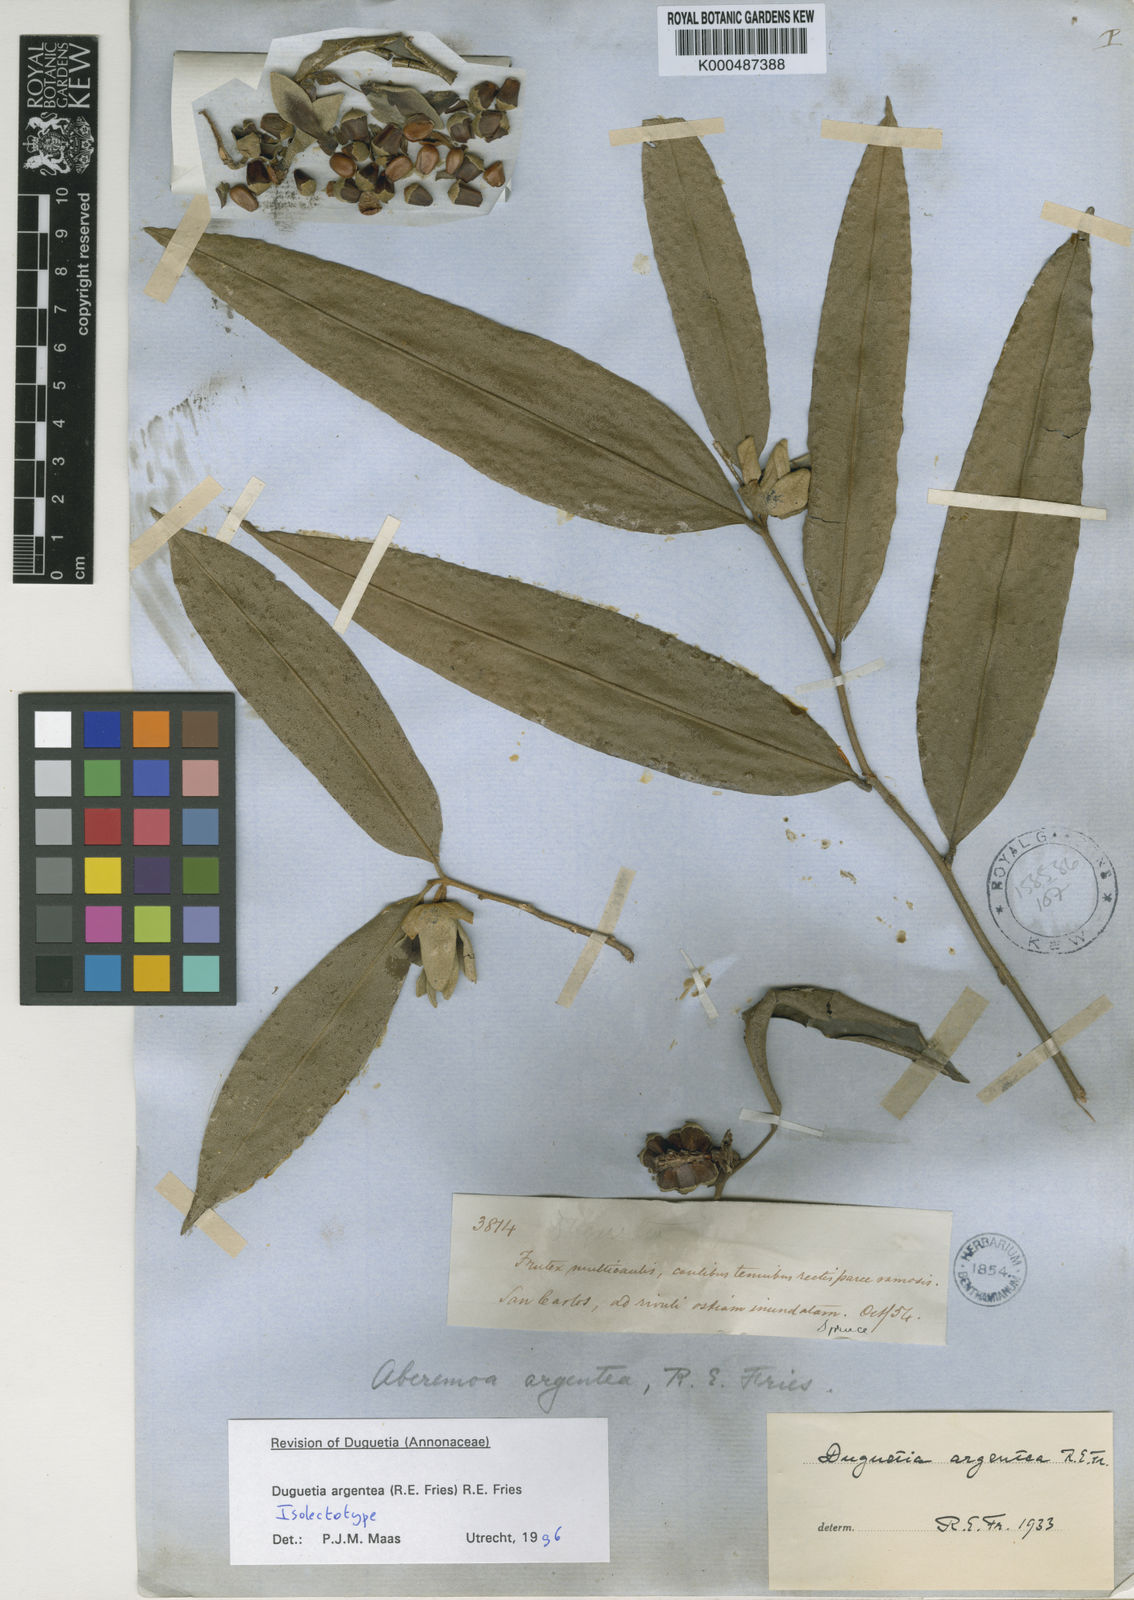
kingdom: Plantae
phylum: Tracheophyta
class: Magnoliopsida
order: Magnoliales
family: Annonaceae
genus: Duguetia
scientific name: Duguetia argentea
